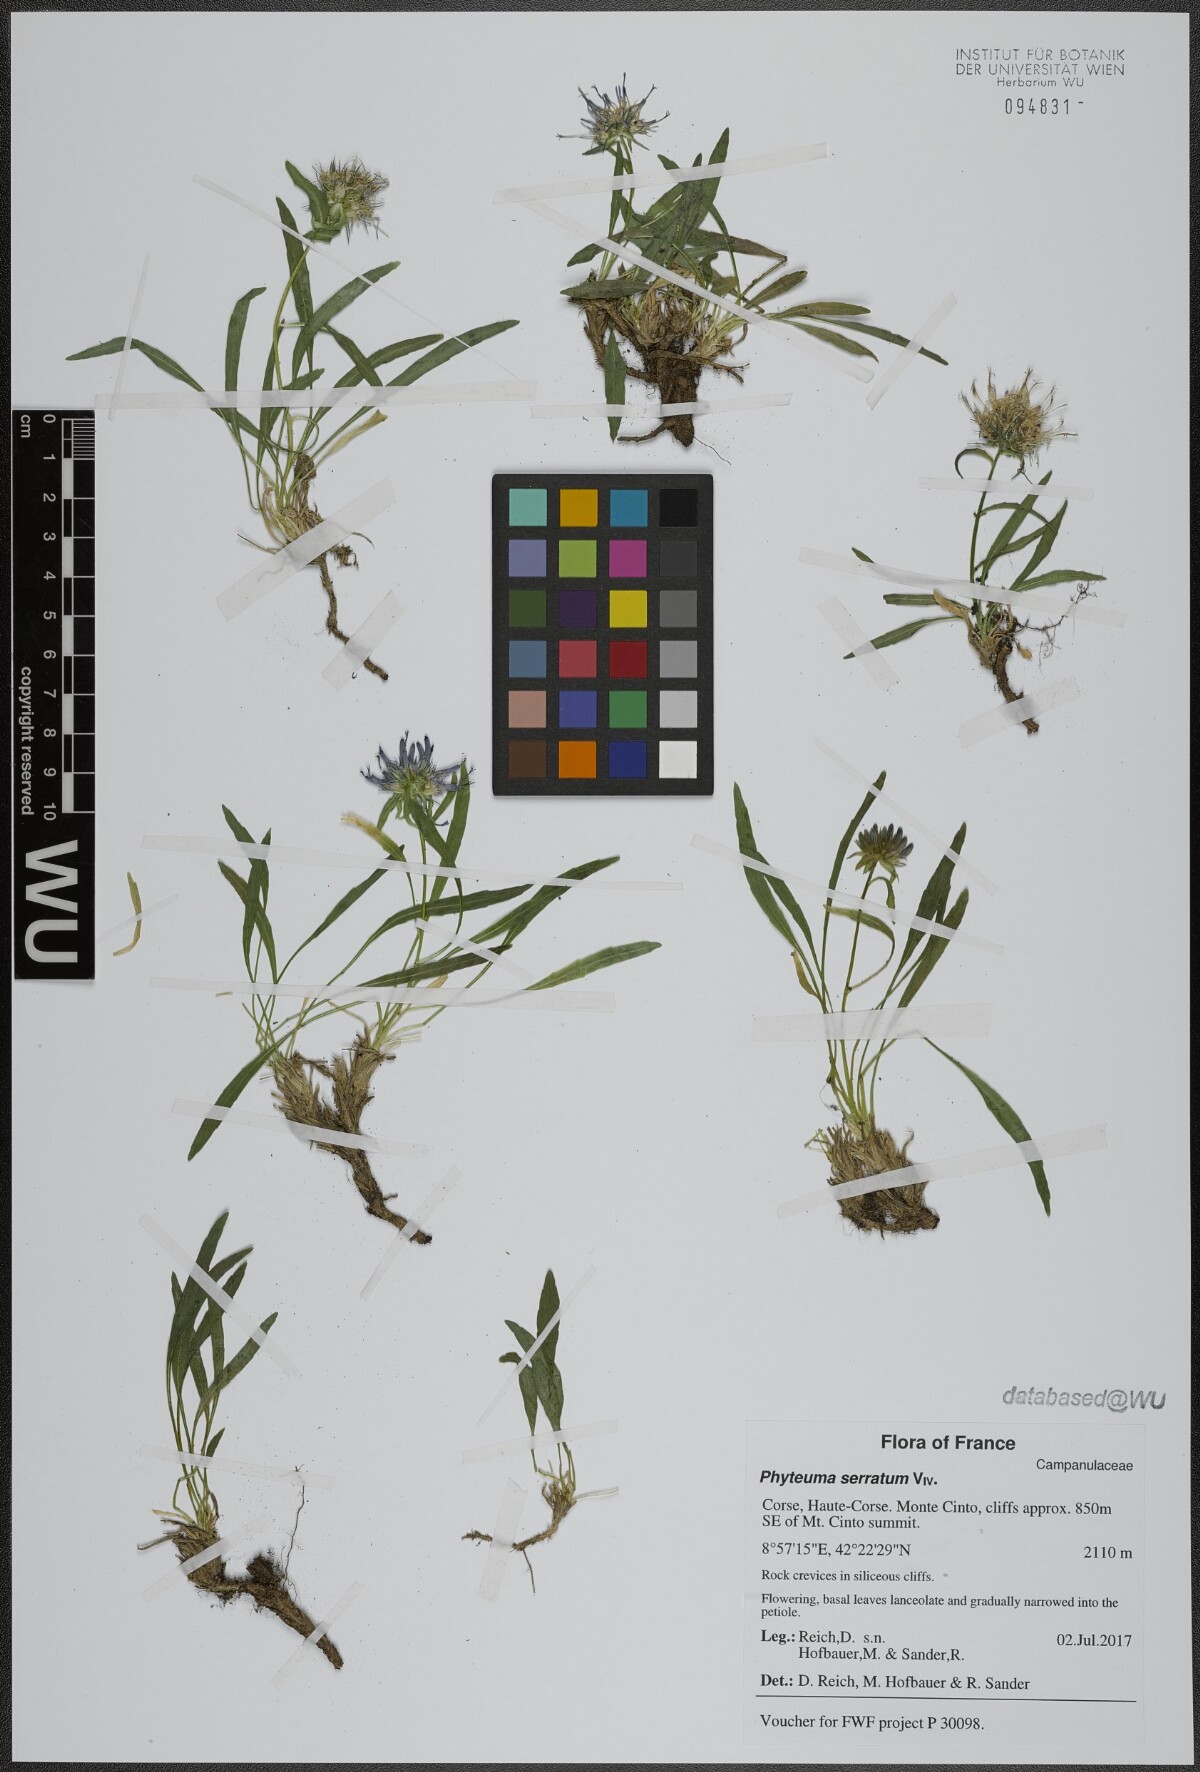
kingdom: Plantae
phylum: Tracheophyta
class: Magnoliopsida
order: Asterales
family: Campanulaceae
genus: Phyteuma
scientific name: Phyteuma serratum
